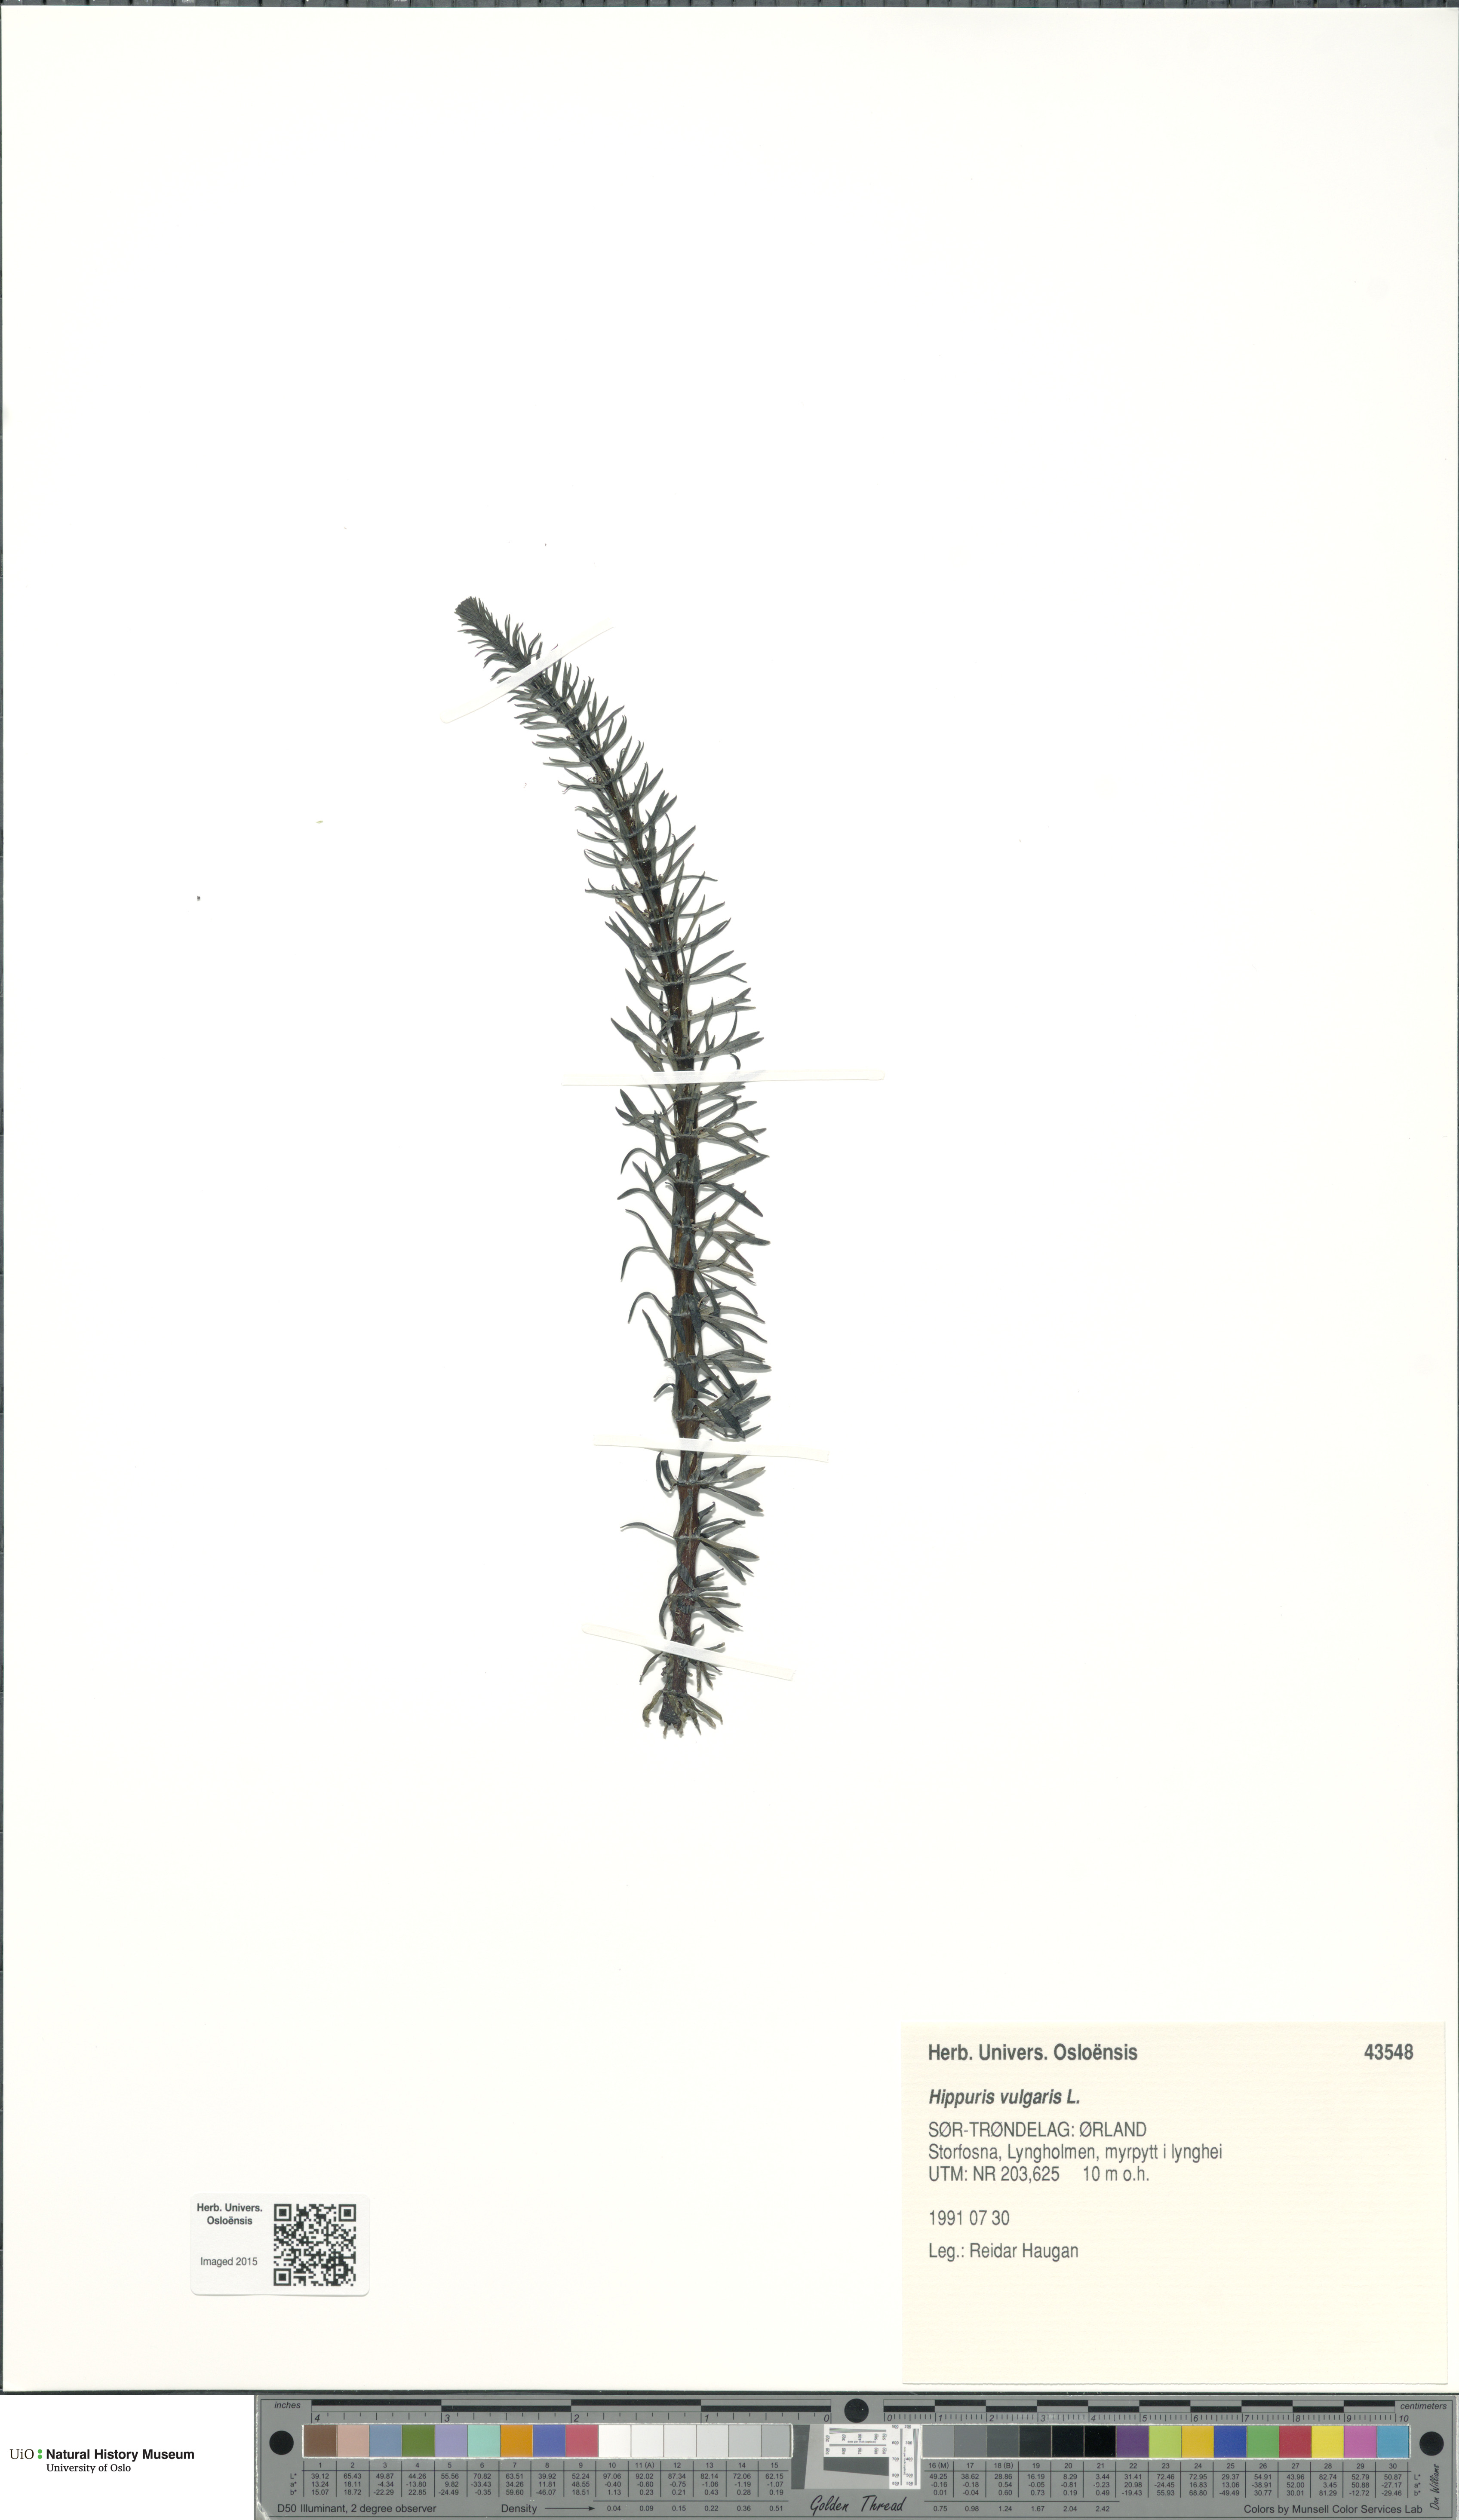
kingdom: Plantae
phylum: Tracheophyta
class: Magnoliopsida
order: Lamiales
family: Plantaginaceae
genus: Hippuris
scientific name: Hippuris vulgaris
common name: Mare's-tail
